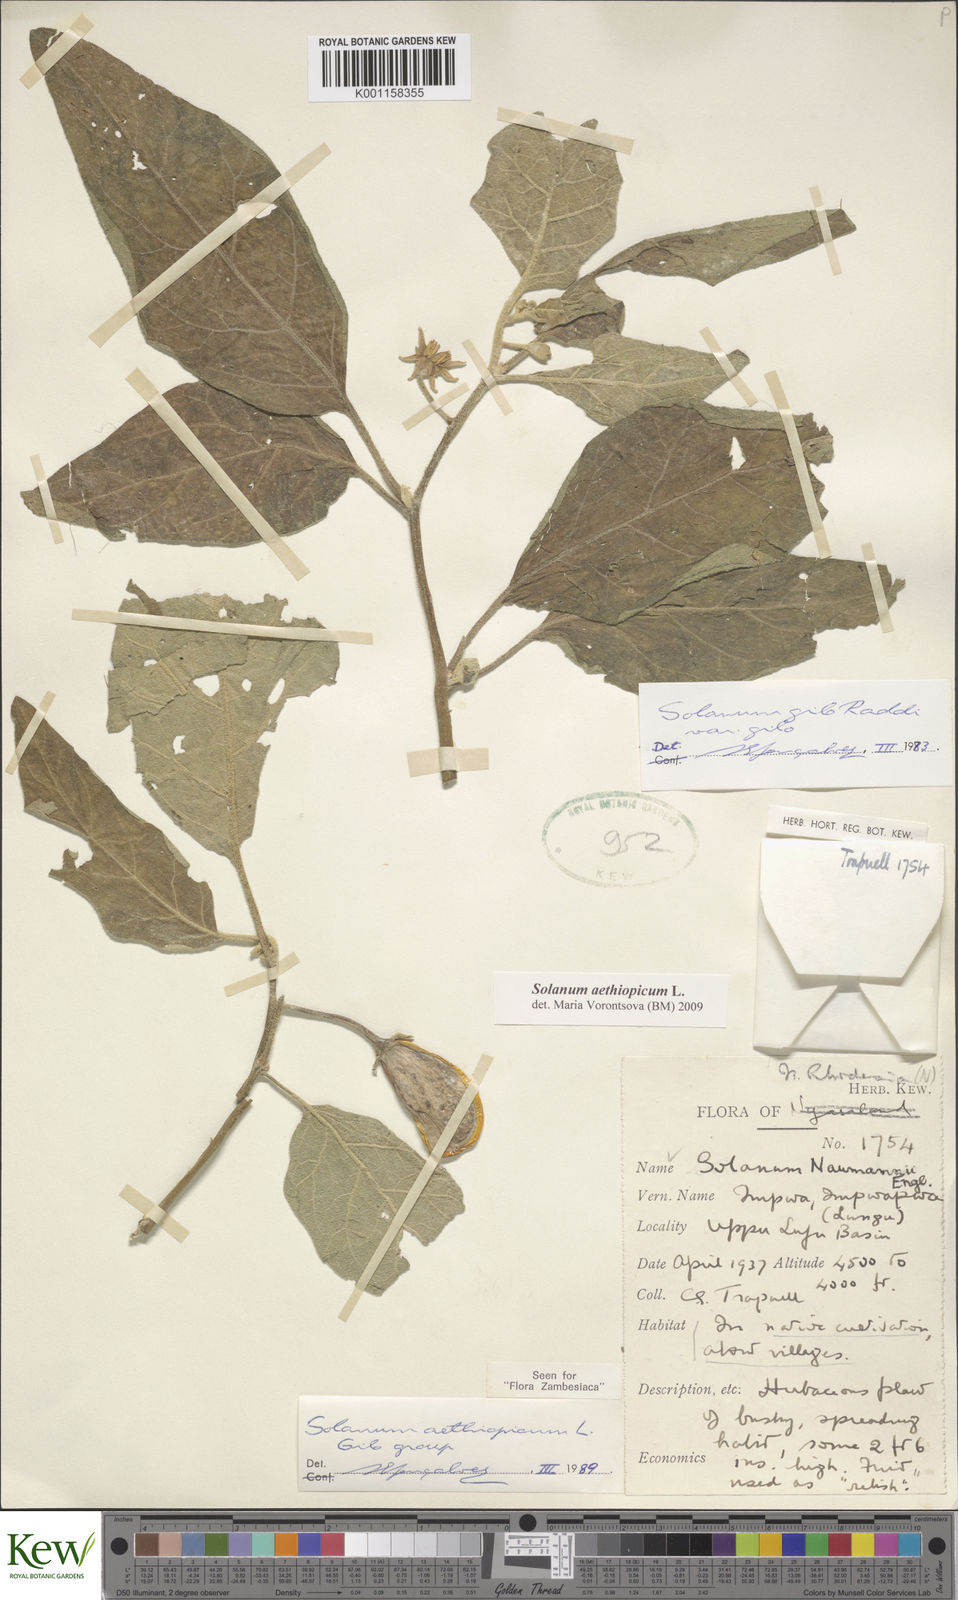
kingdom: Plantae
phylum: Tracheophyta
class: Magnoliopsida
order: Solanales
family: Solanaceae
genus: Solanum
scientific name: Solanum aethiopicum
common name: Gilo
